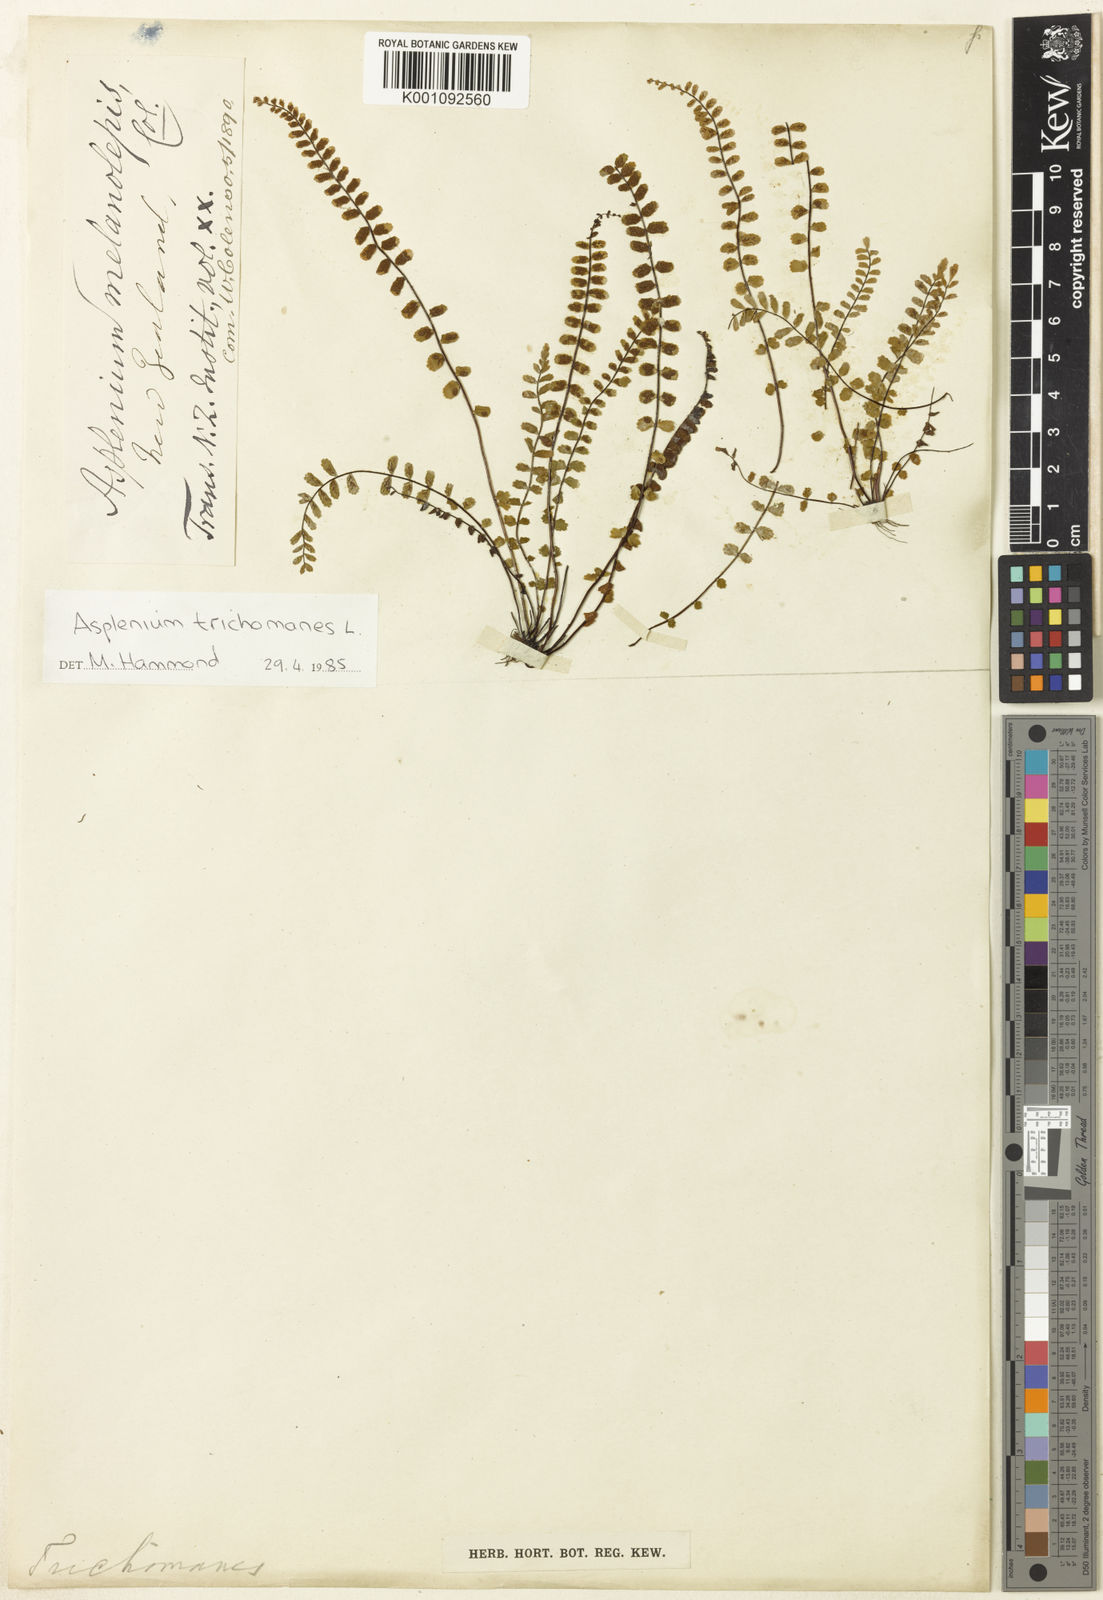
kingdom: Plantae
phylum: Tracheophyta
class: Polypodiopsida
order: Polypodiales
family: Aspleniaceae
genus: Asplenium
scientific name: Asplenium trichomanes
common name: Maidenhair spleenwort
